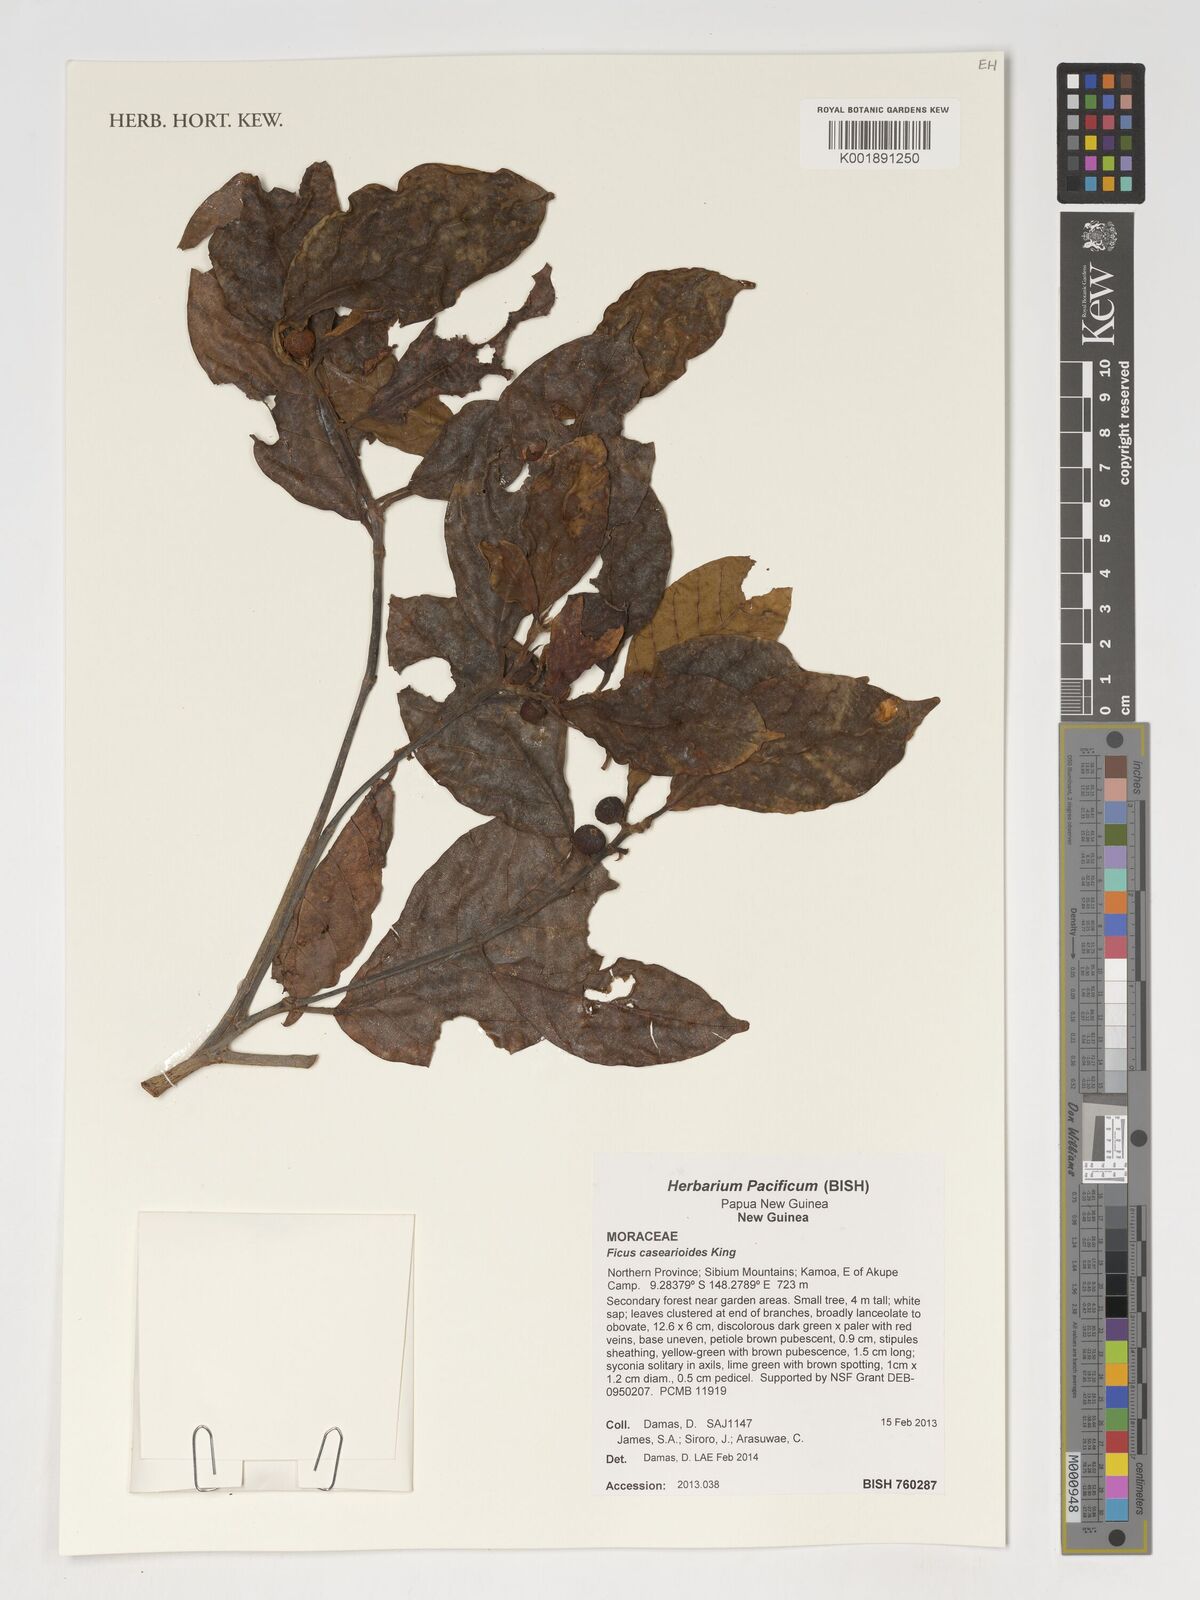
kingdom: Plantae
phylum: Tracheophyta
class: Magnoliopsida
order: Rosales
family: Moraceae
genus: Ficus
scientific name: Ficus casearioides
